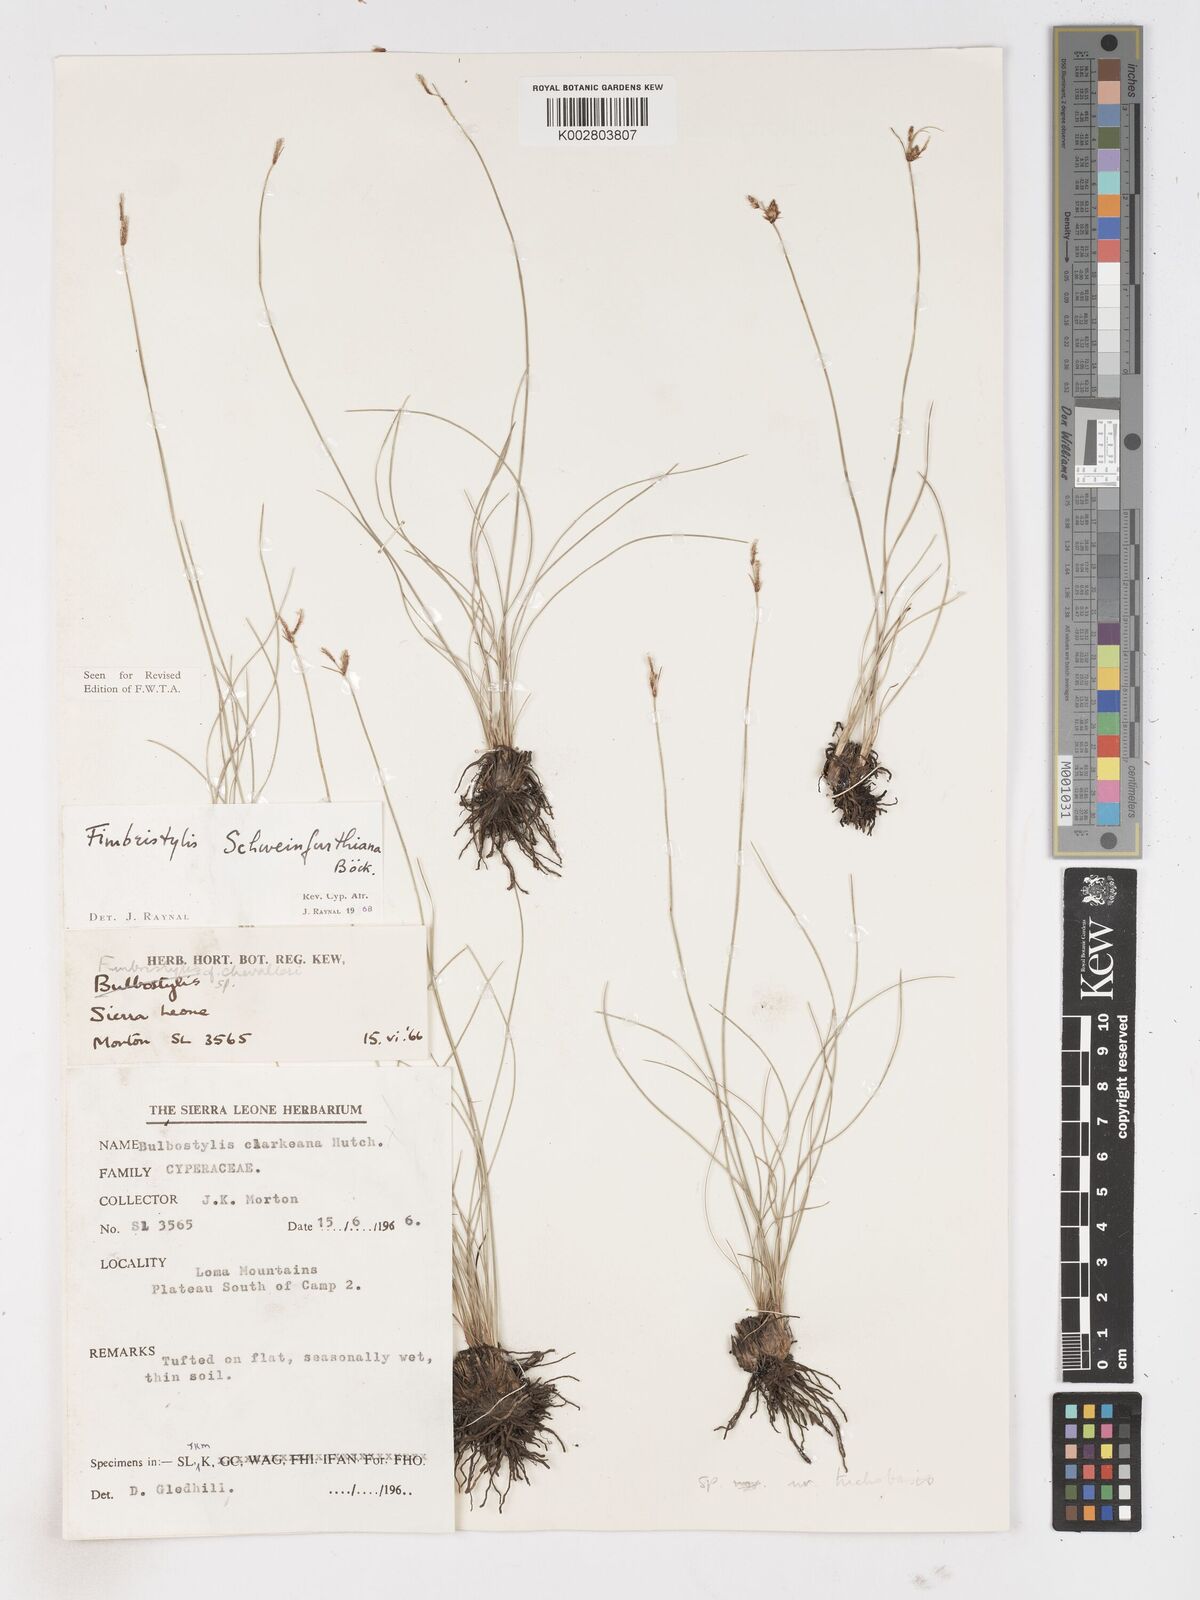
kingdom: Plantae
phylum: Tracheophyta
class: Liliopsida
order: Poales
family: Cyperaceae
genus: Fimbristylis
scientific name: Fimbristylis schweinfurthiana
